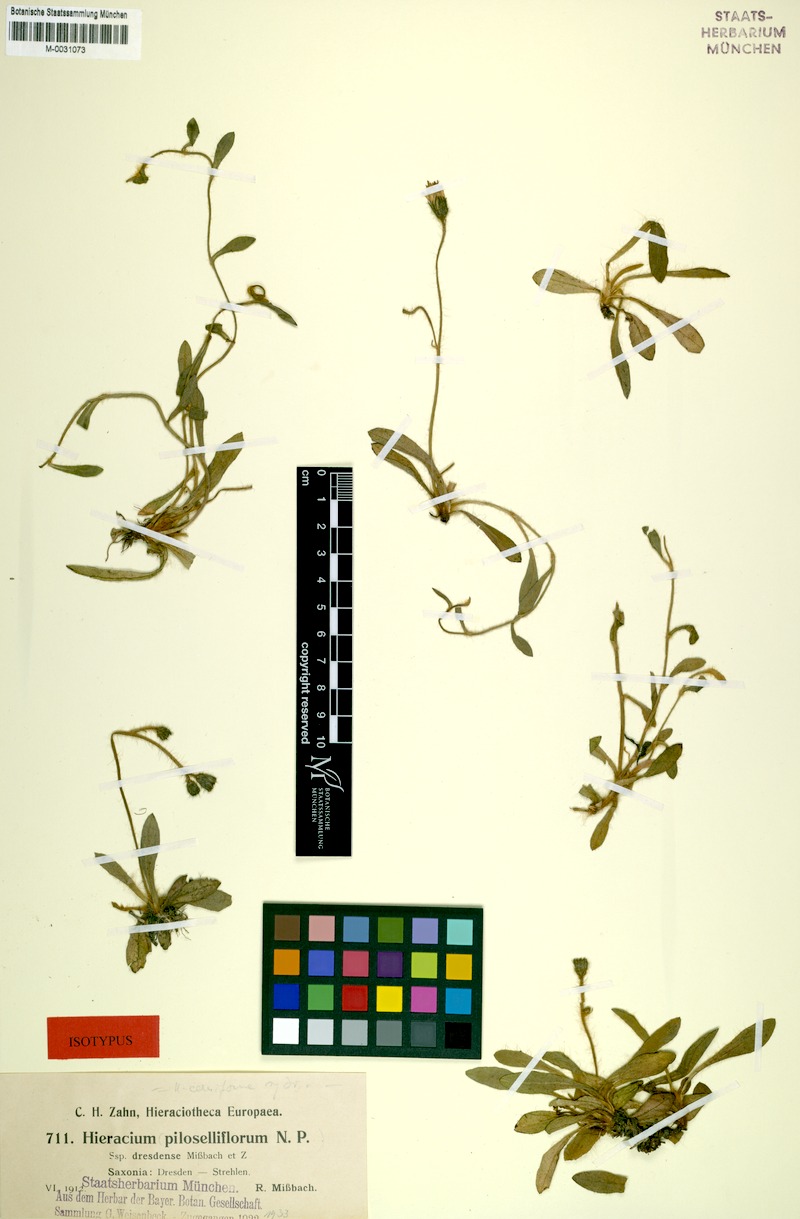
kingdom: Plantae
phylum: Tracheophyta
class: Magnoliopsida
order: Asterales
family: Asteraceae
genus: Pilosella
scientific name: Pilosella piloselliflora
